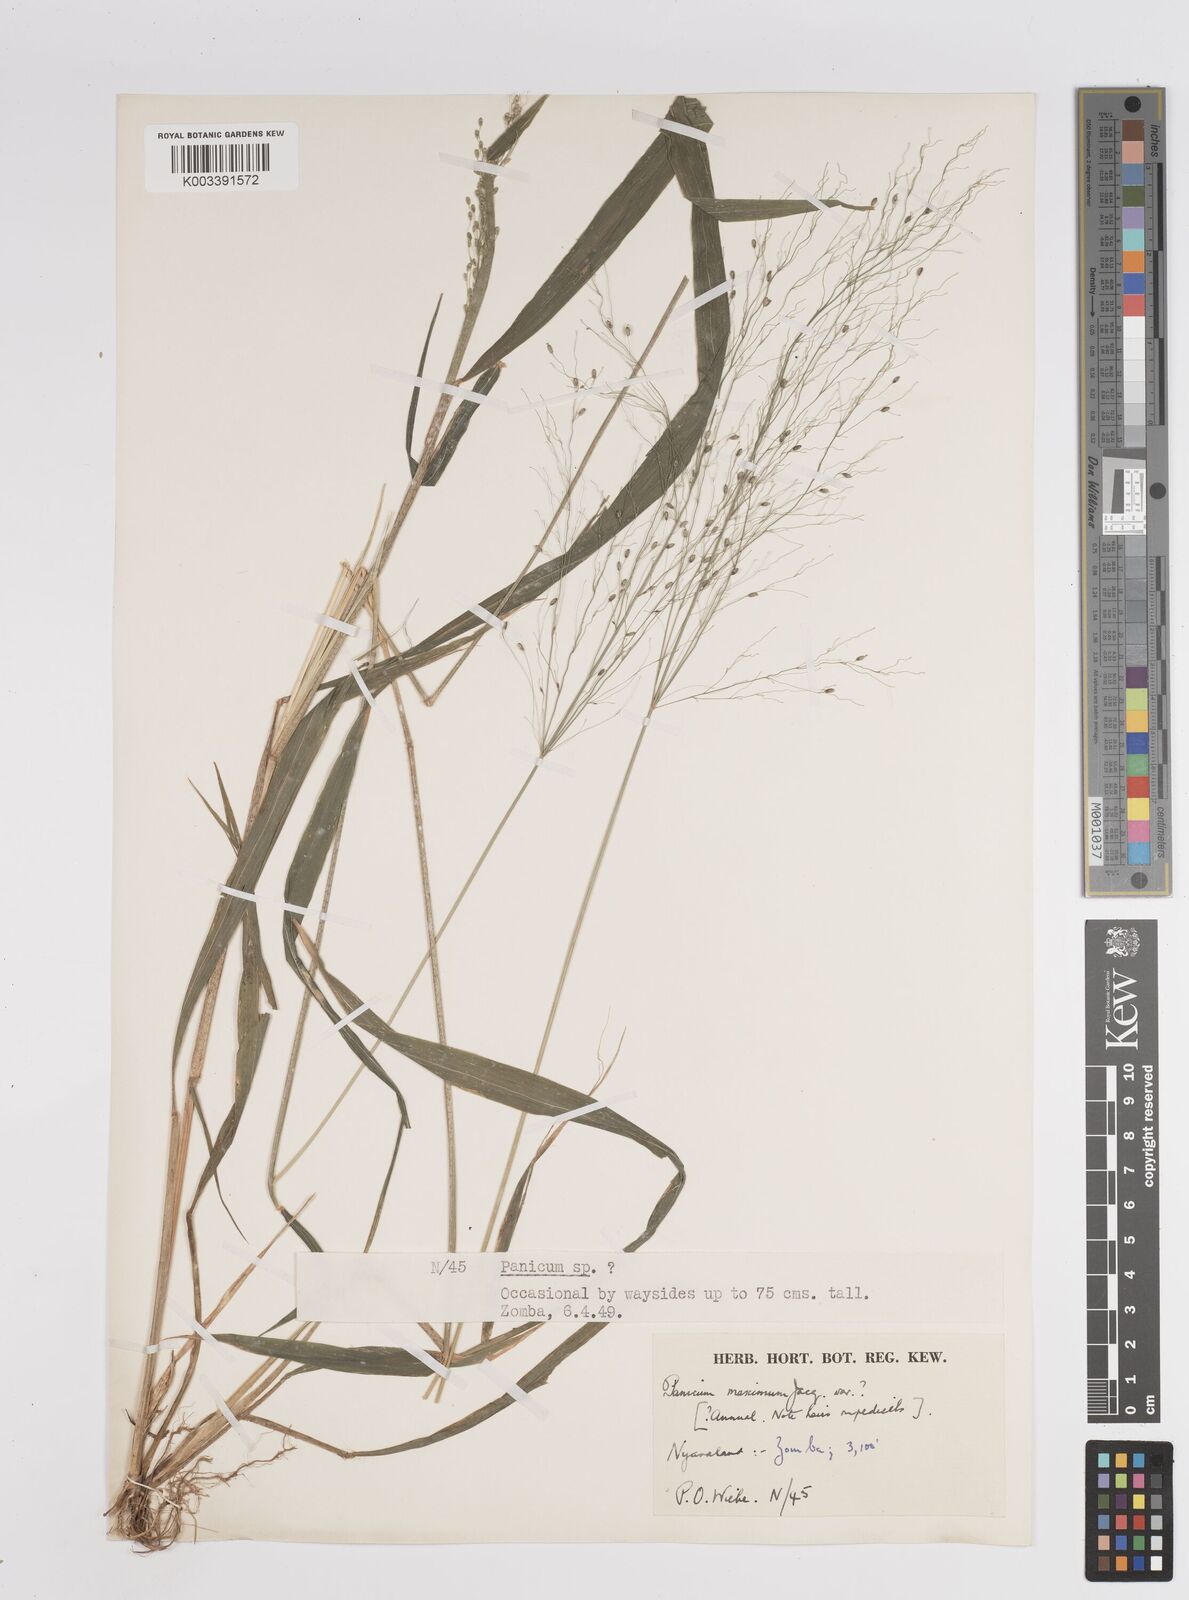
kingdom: Plantae
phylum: Tracheophyta
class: Liliopsida
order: Poales
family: Poaceae
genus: Megathyrsus
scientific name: Megathyrsus maximus
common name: Guineagrass
